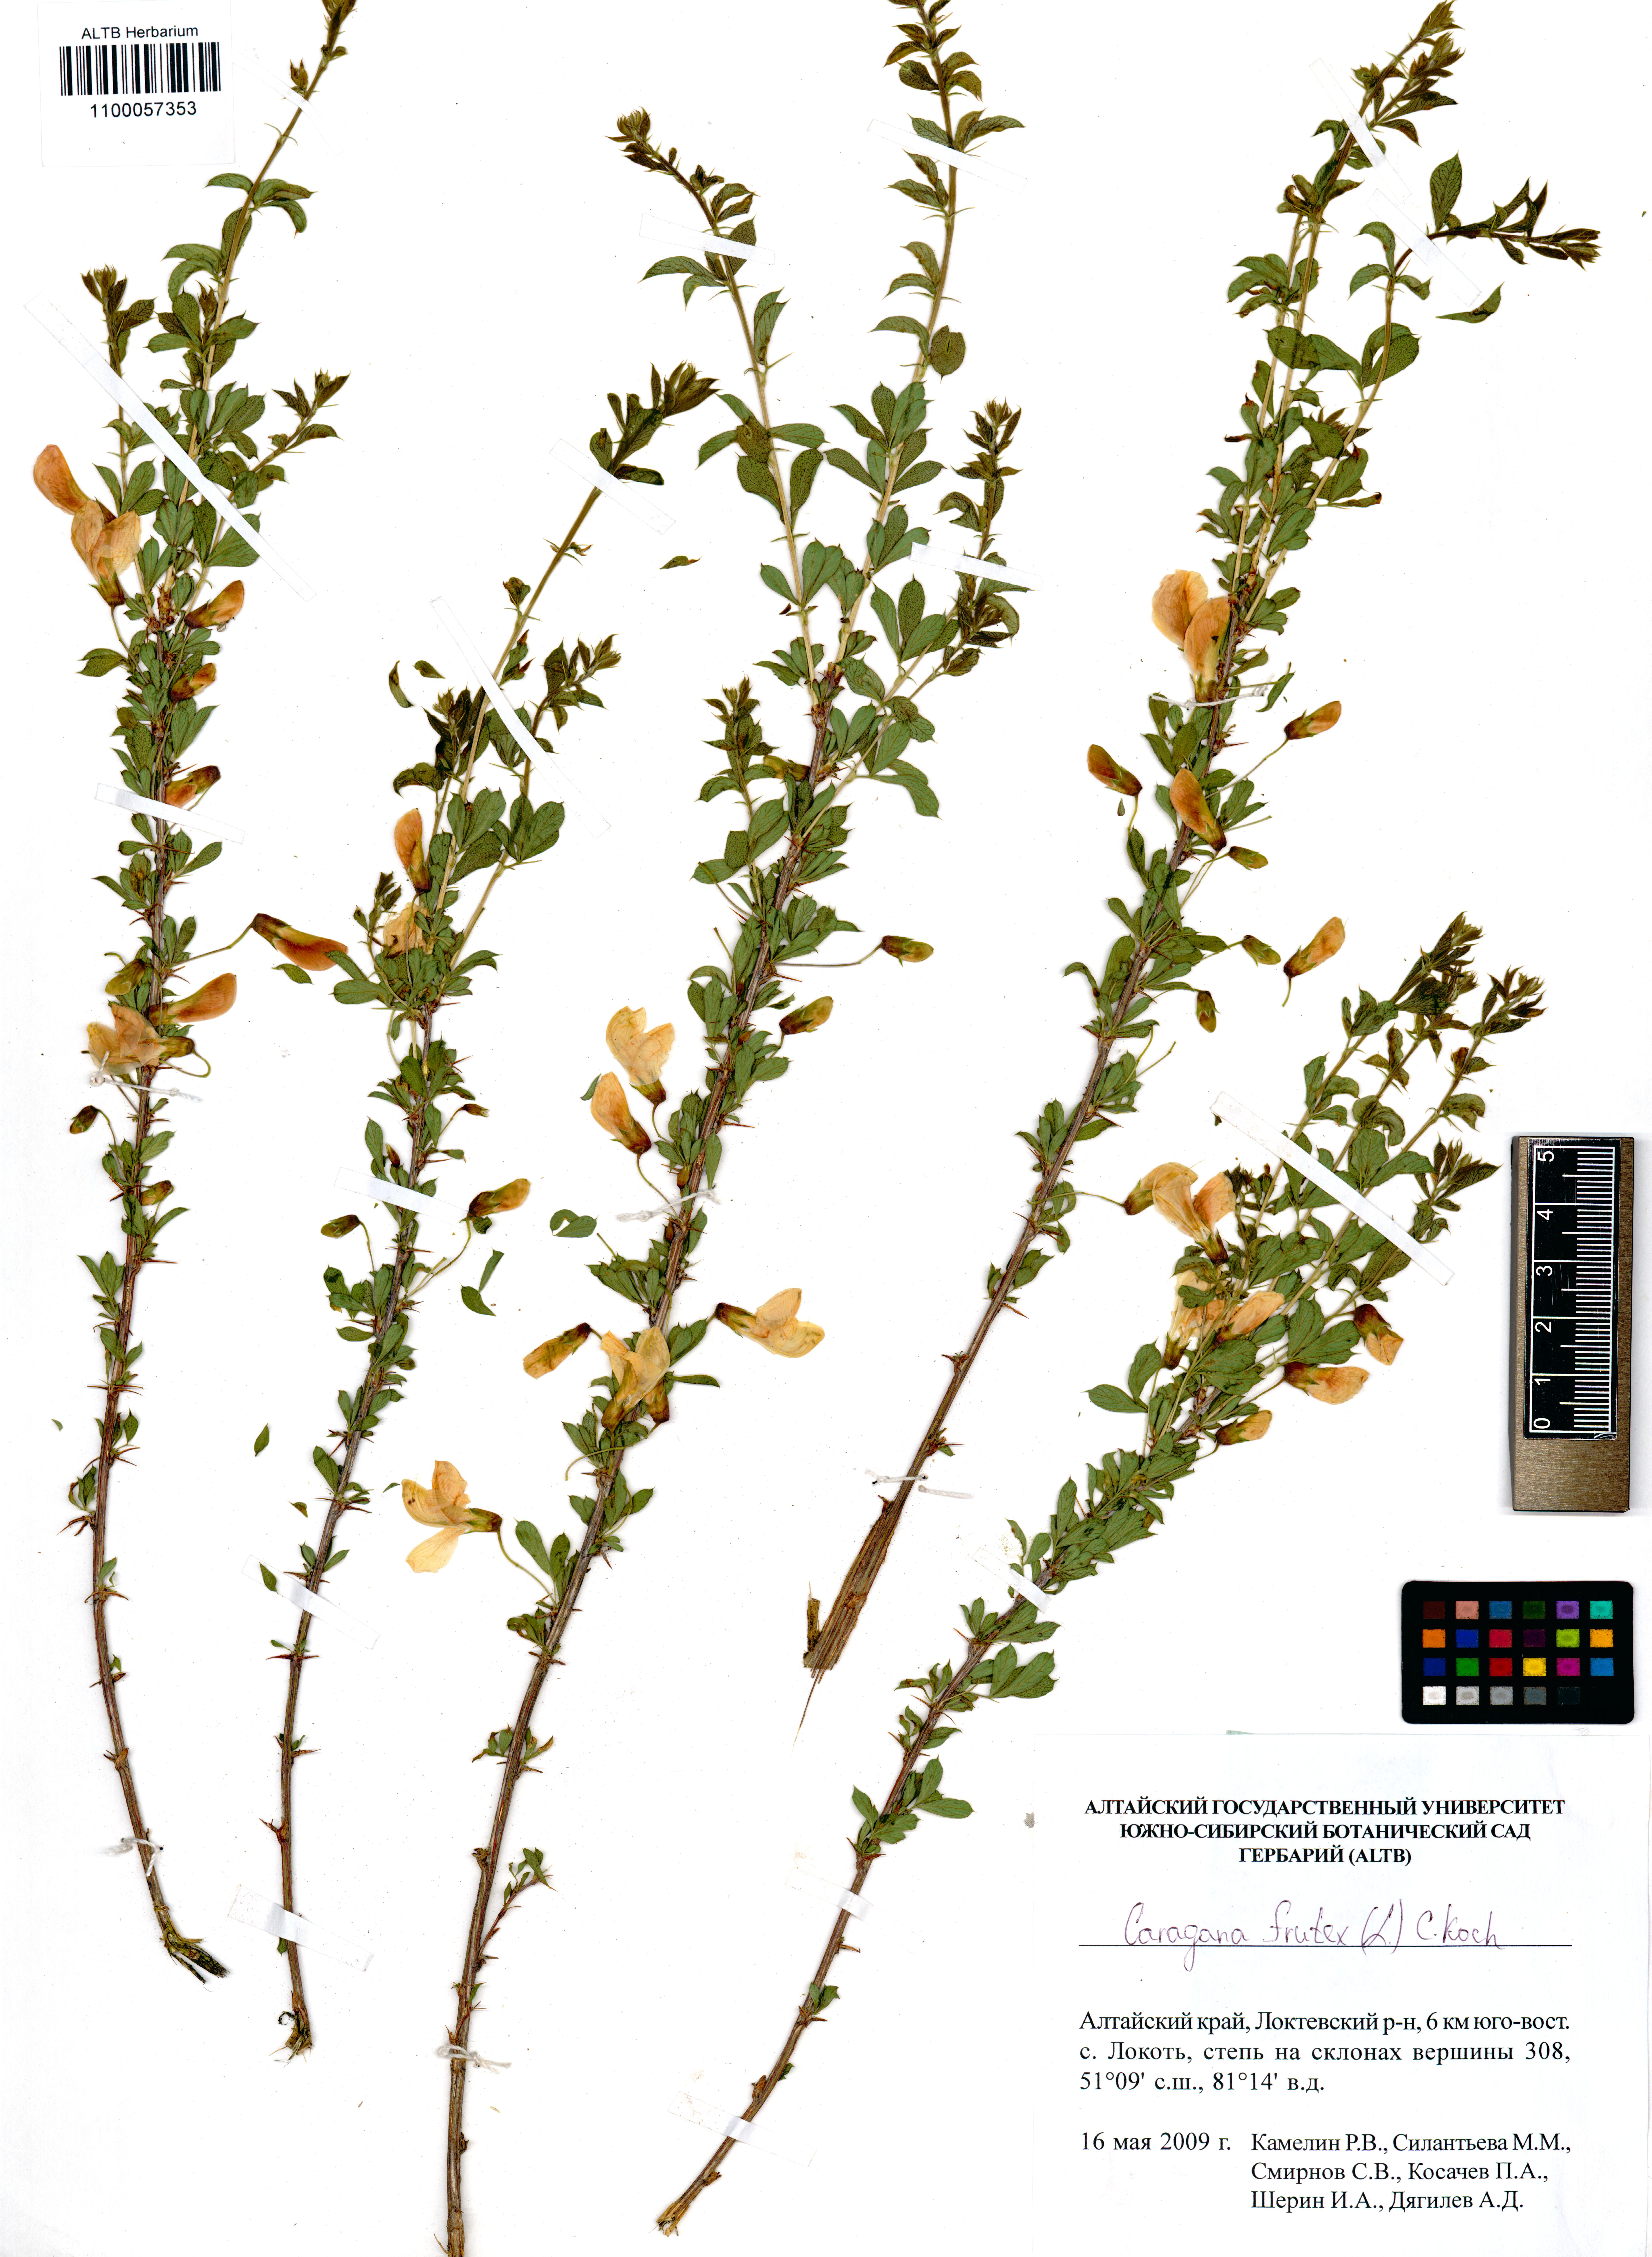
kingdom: Plantae
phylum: Tracheophyta
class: Magnoliopsida
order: Fabales
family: Fabaceae
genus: Caragana
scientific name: Caragana frutex
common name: Russian peashrub
